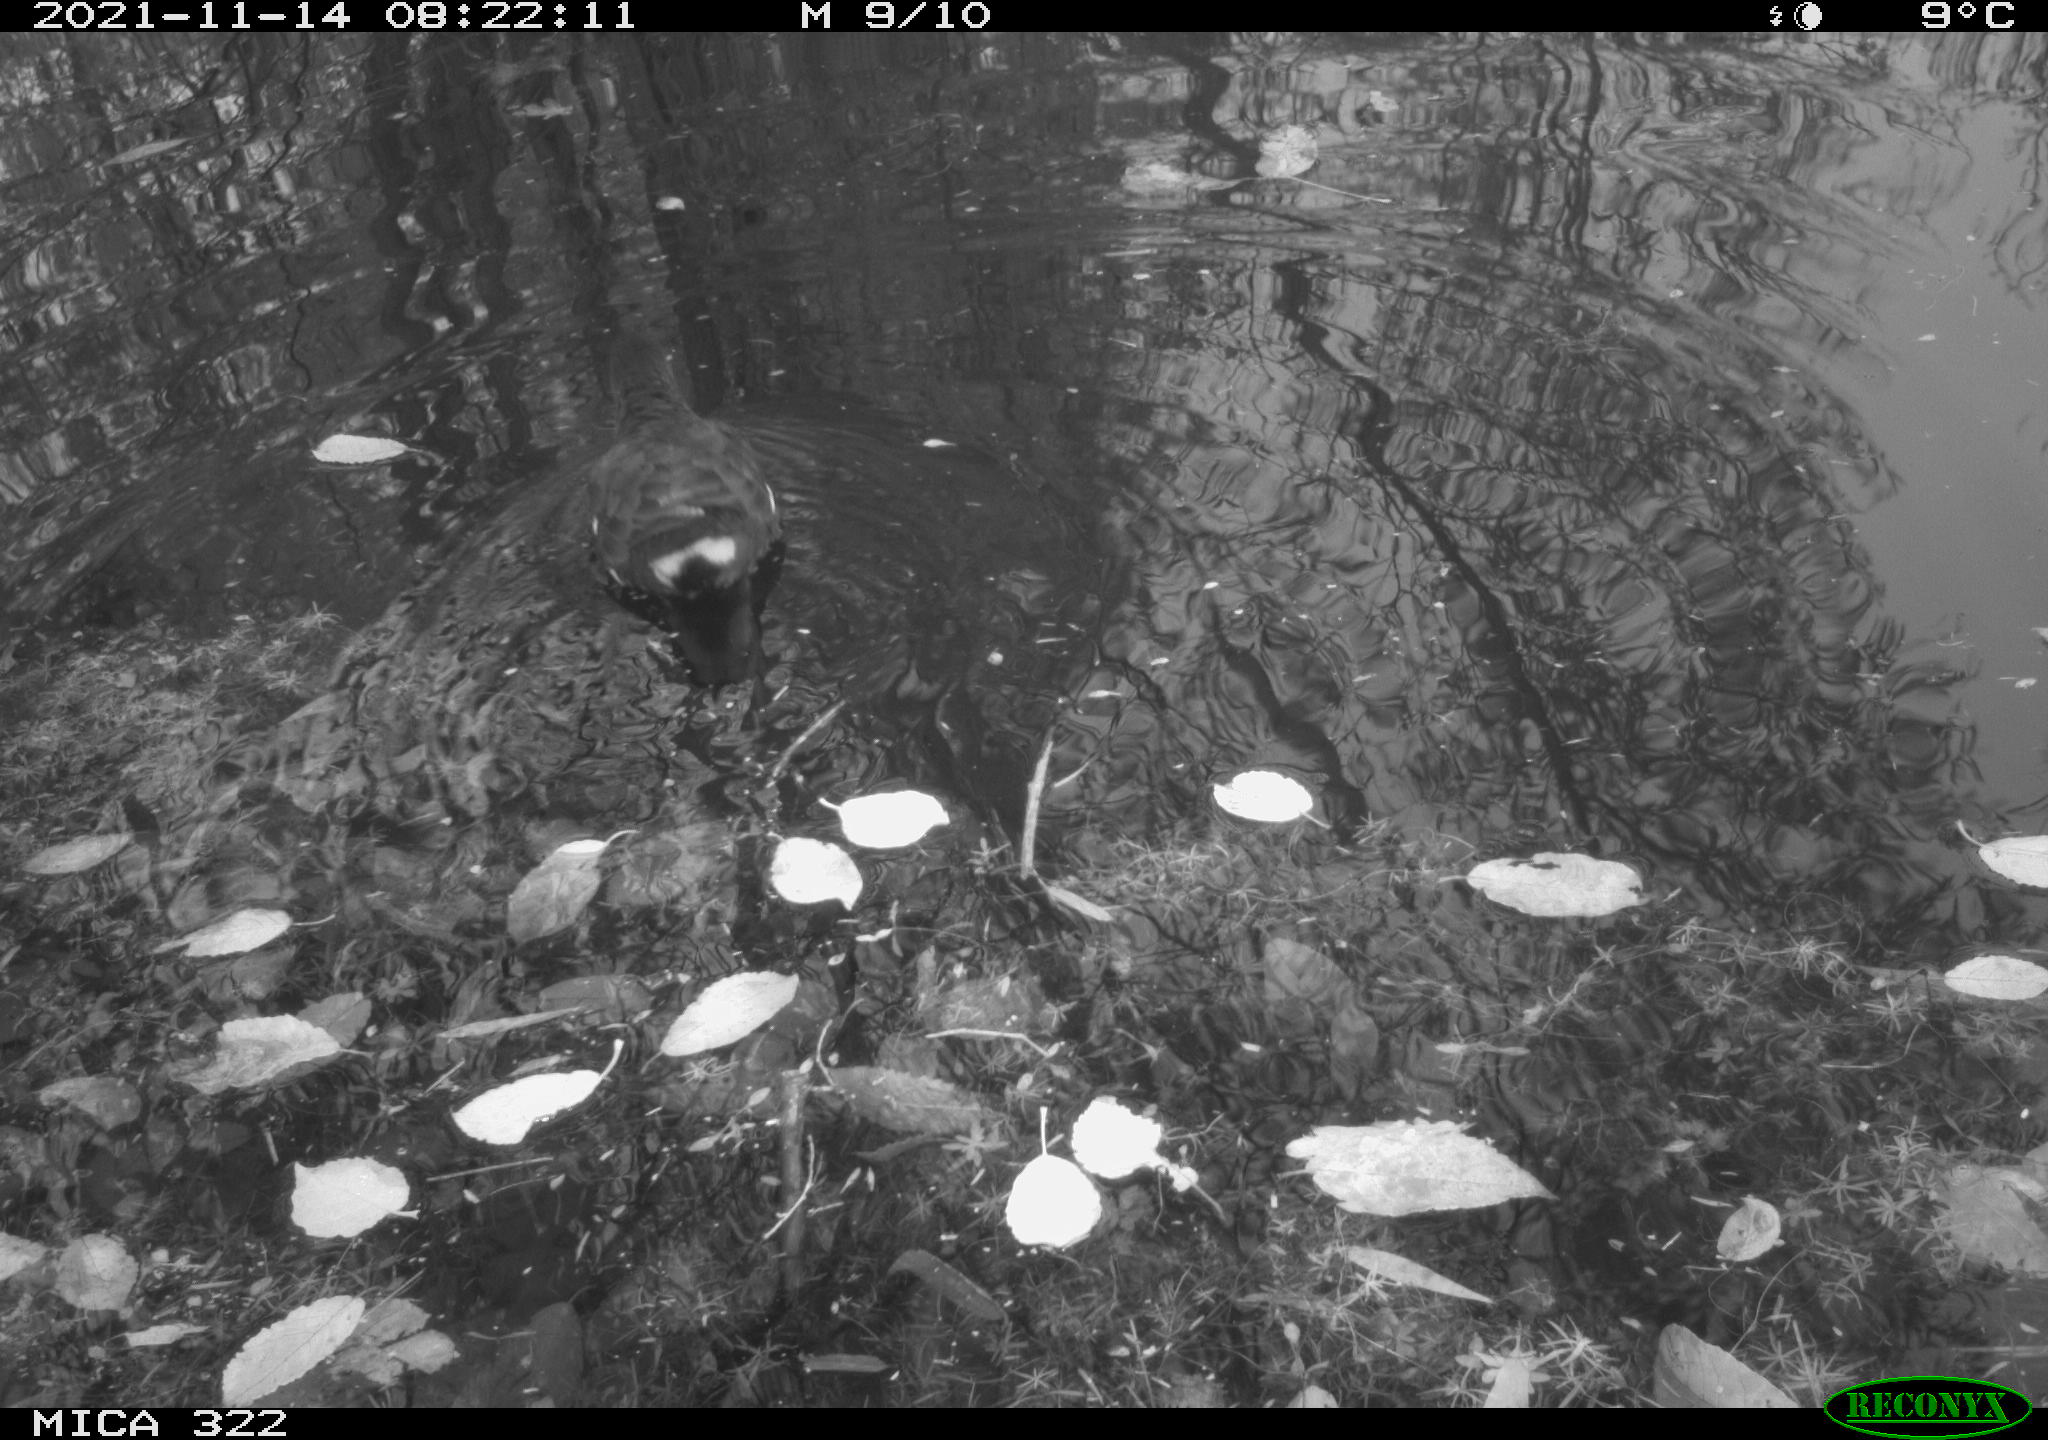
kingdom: Animalia
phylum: Chordata
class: Aves
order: Gruiformes
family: Rallidae
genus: Gallinula
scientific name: Gallinula chloropus
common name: Common moorhen
